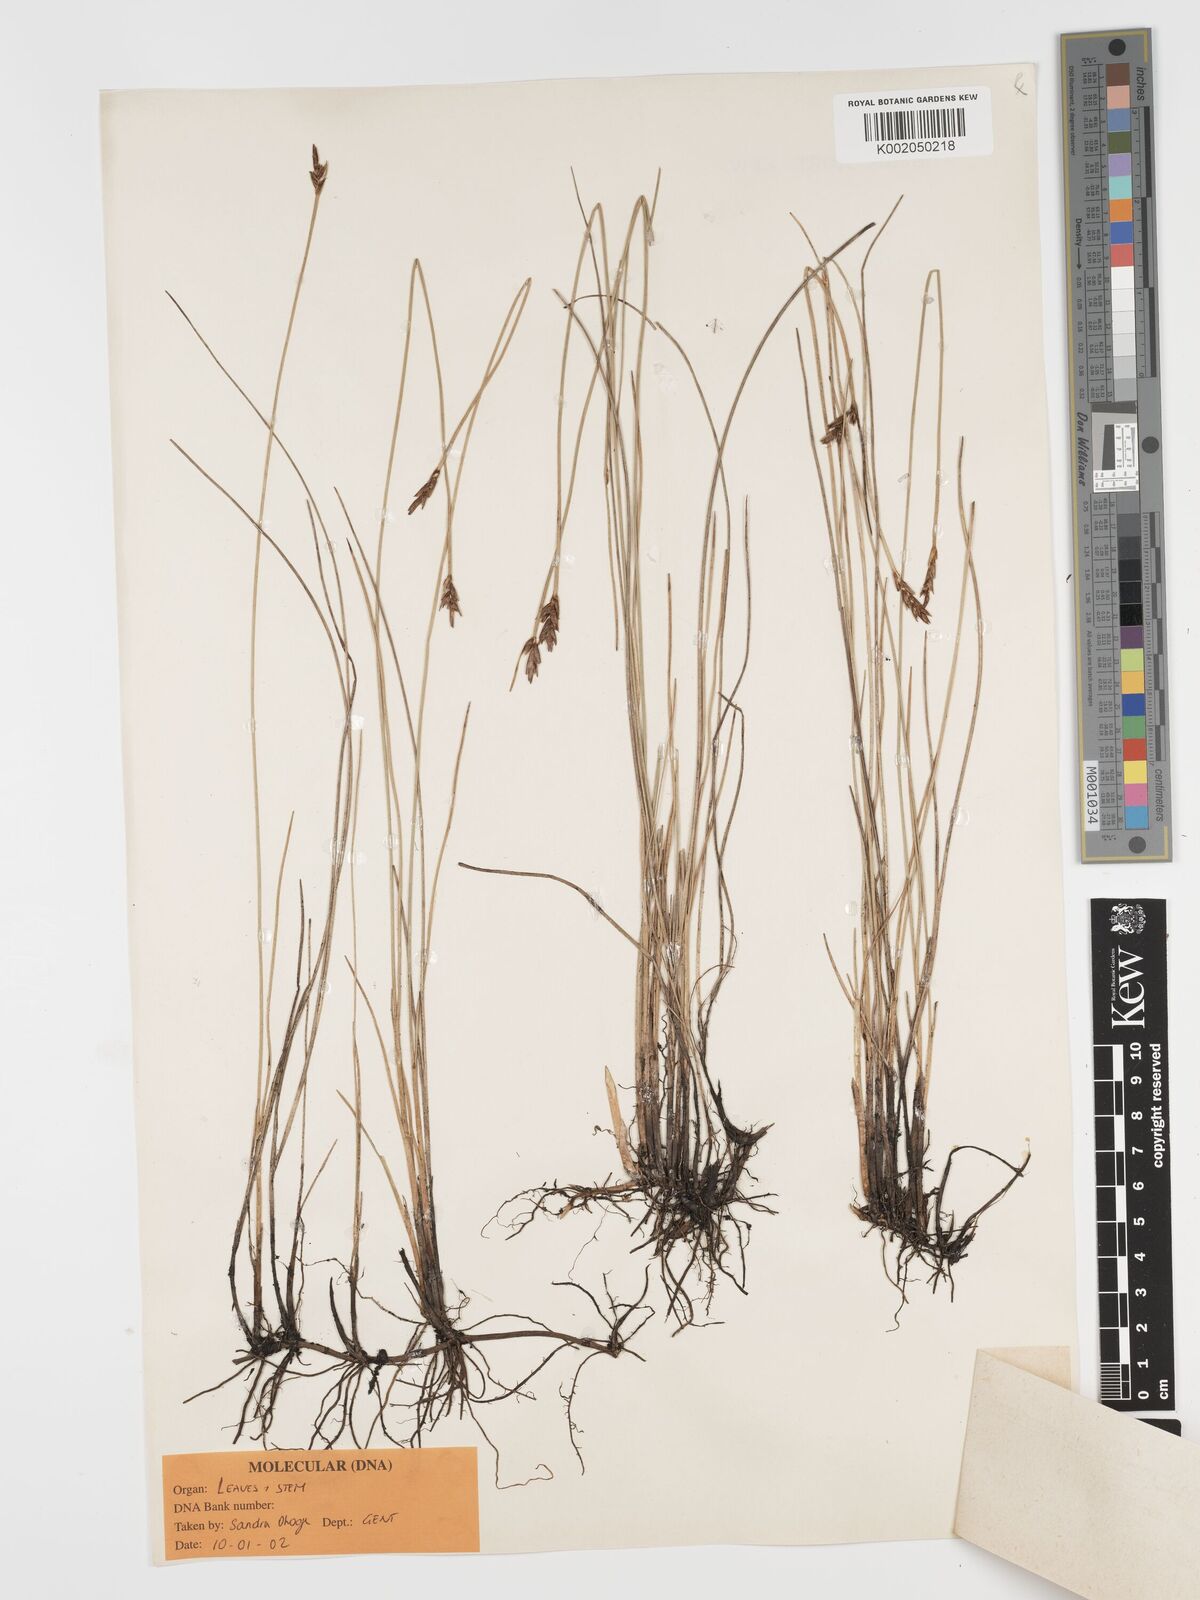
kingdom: Plantae
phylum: Tracheophyta
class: Liliopsida
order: Poales
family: Cyperaceae
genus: Blysmus
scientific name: Blysmus rufus
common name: Saltmarsh flat-sedge
